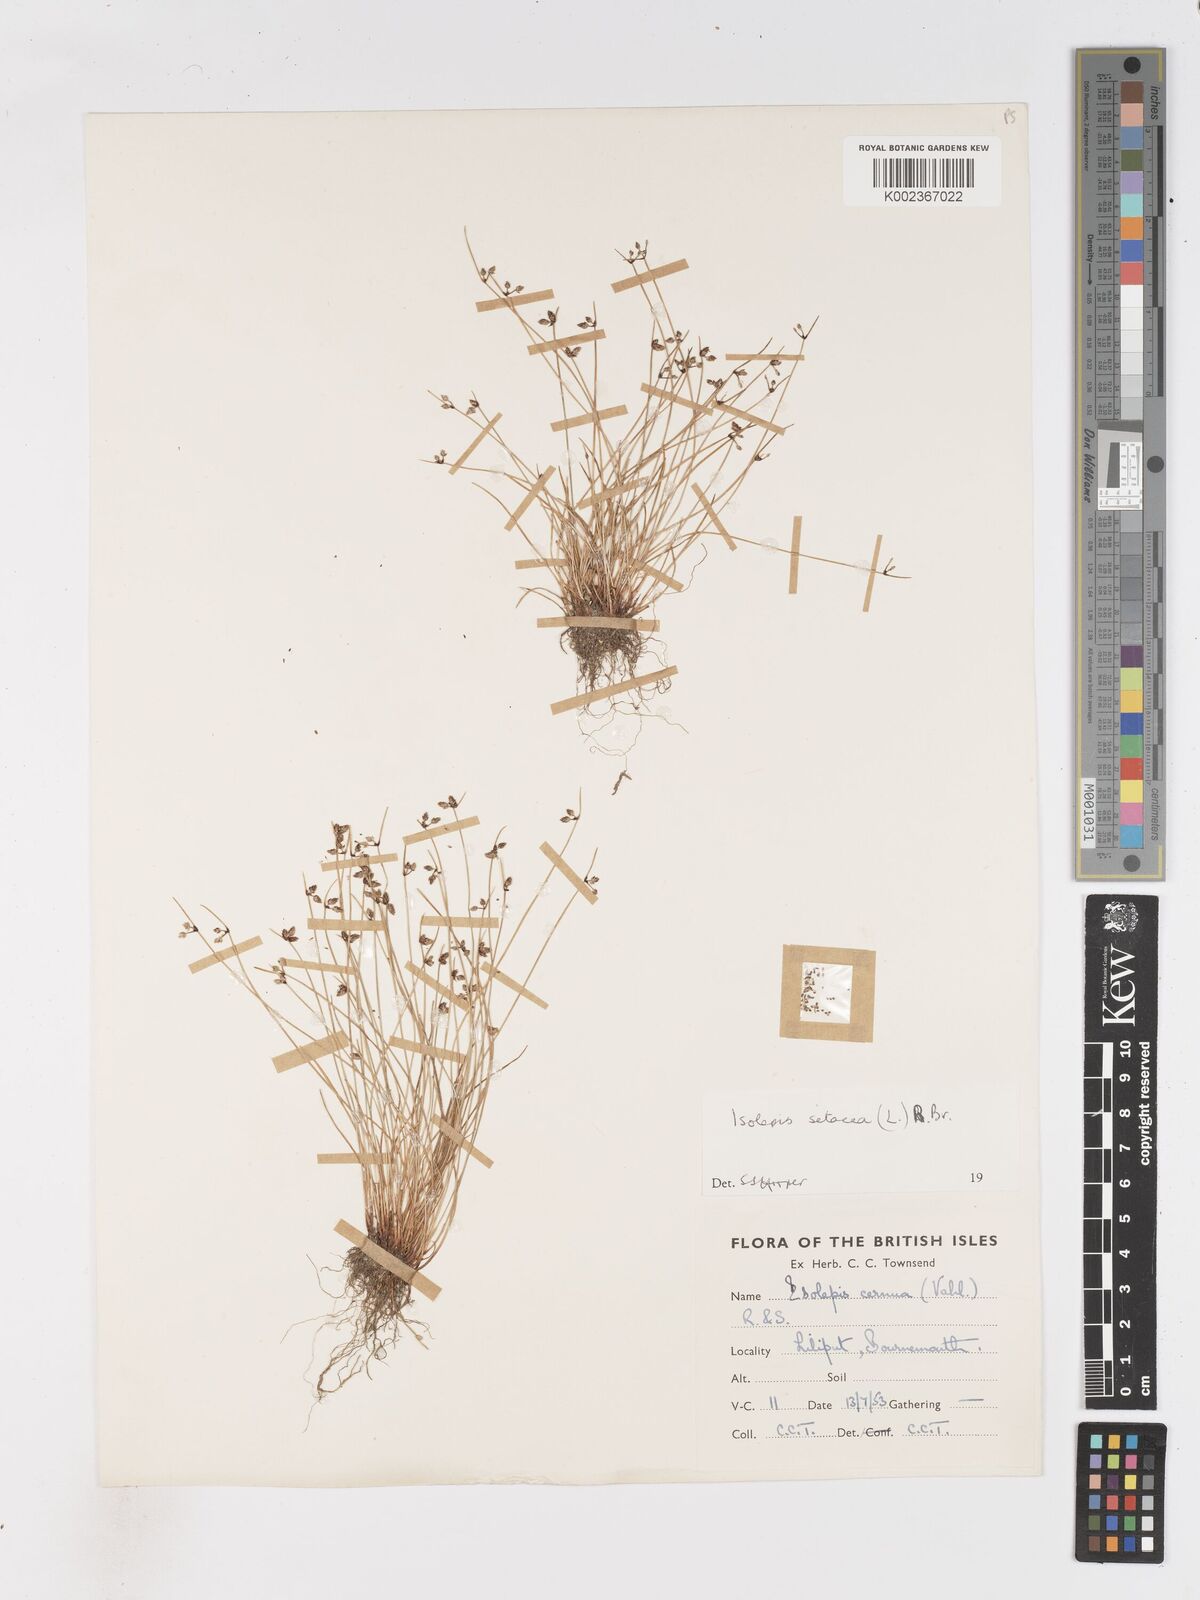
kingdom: Plantae
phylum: Tracheophyta
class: Liliopsida
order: Poales
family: Cyperaceae
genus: Isolepis
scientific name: Isolepis setacea
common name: Bristle club-rush
